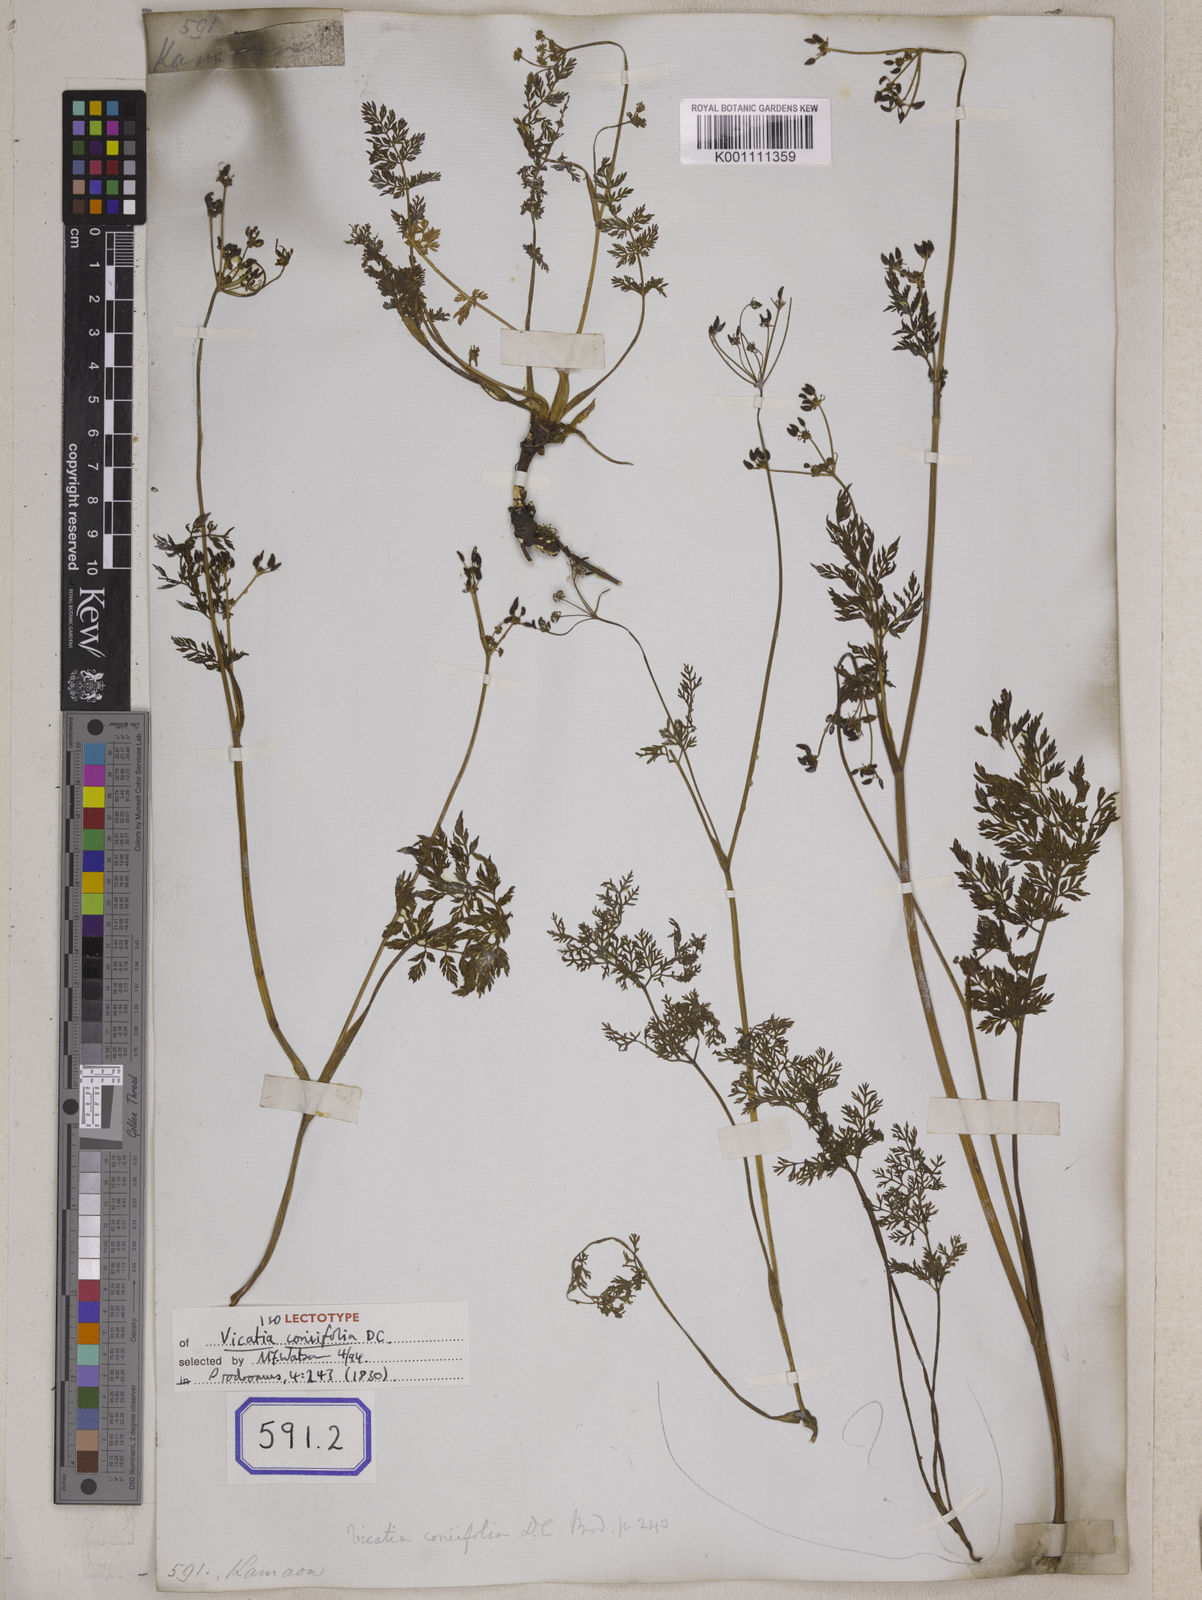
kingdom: Plantae
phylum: Tracheophyta
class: Magnoliopsida
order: Apiales
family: Apiaceae
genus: Sison
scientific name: Sison
